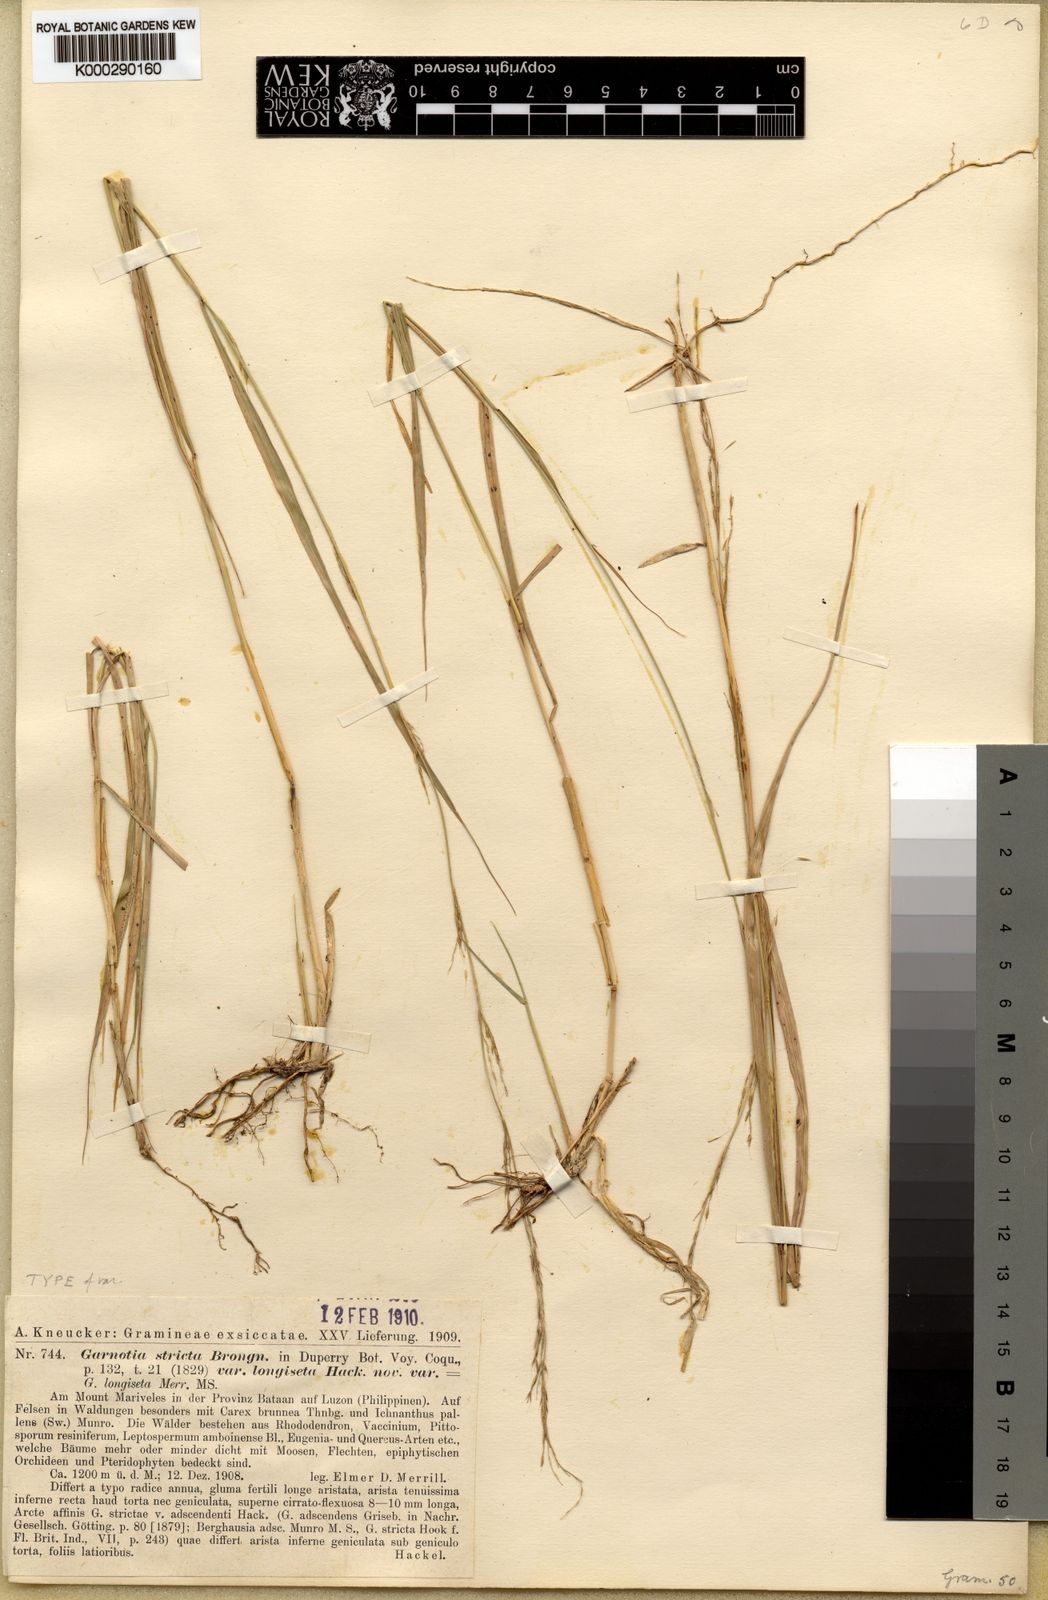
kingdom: Plantae
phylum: Tracheophyta
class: Liliopsida
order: Poales
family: Poaceae
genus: Garnotia
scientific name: Garnotia stricta
